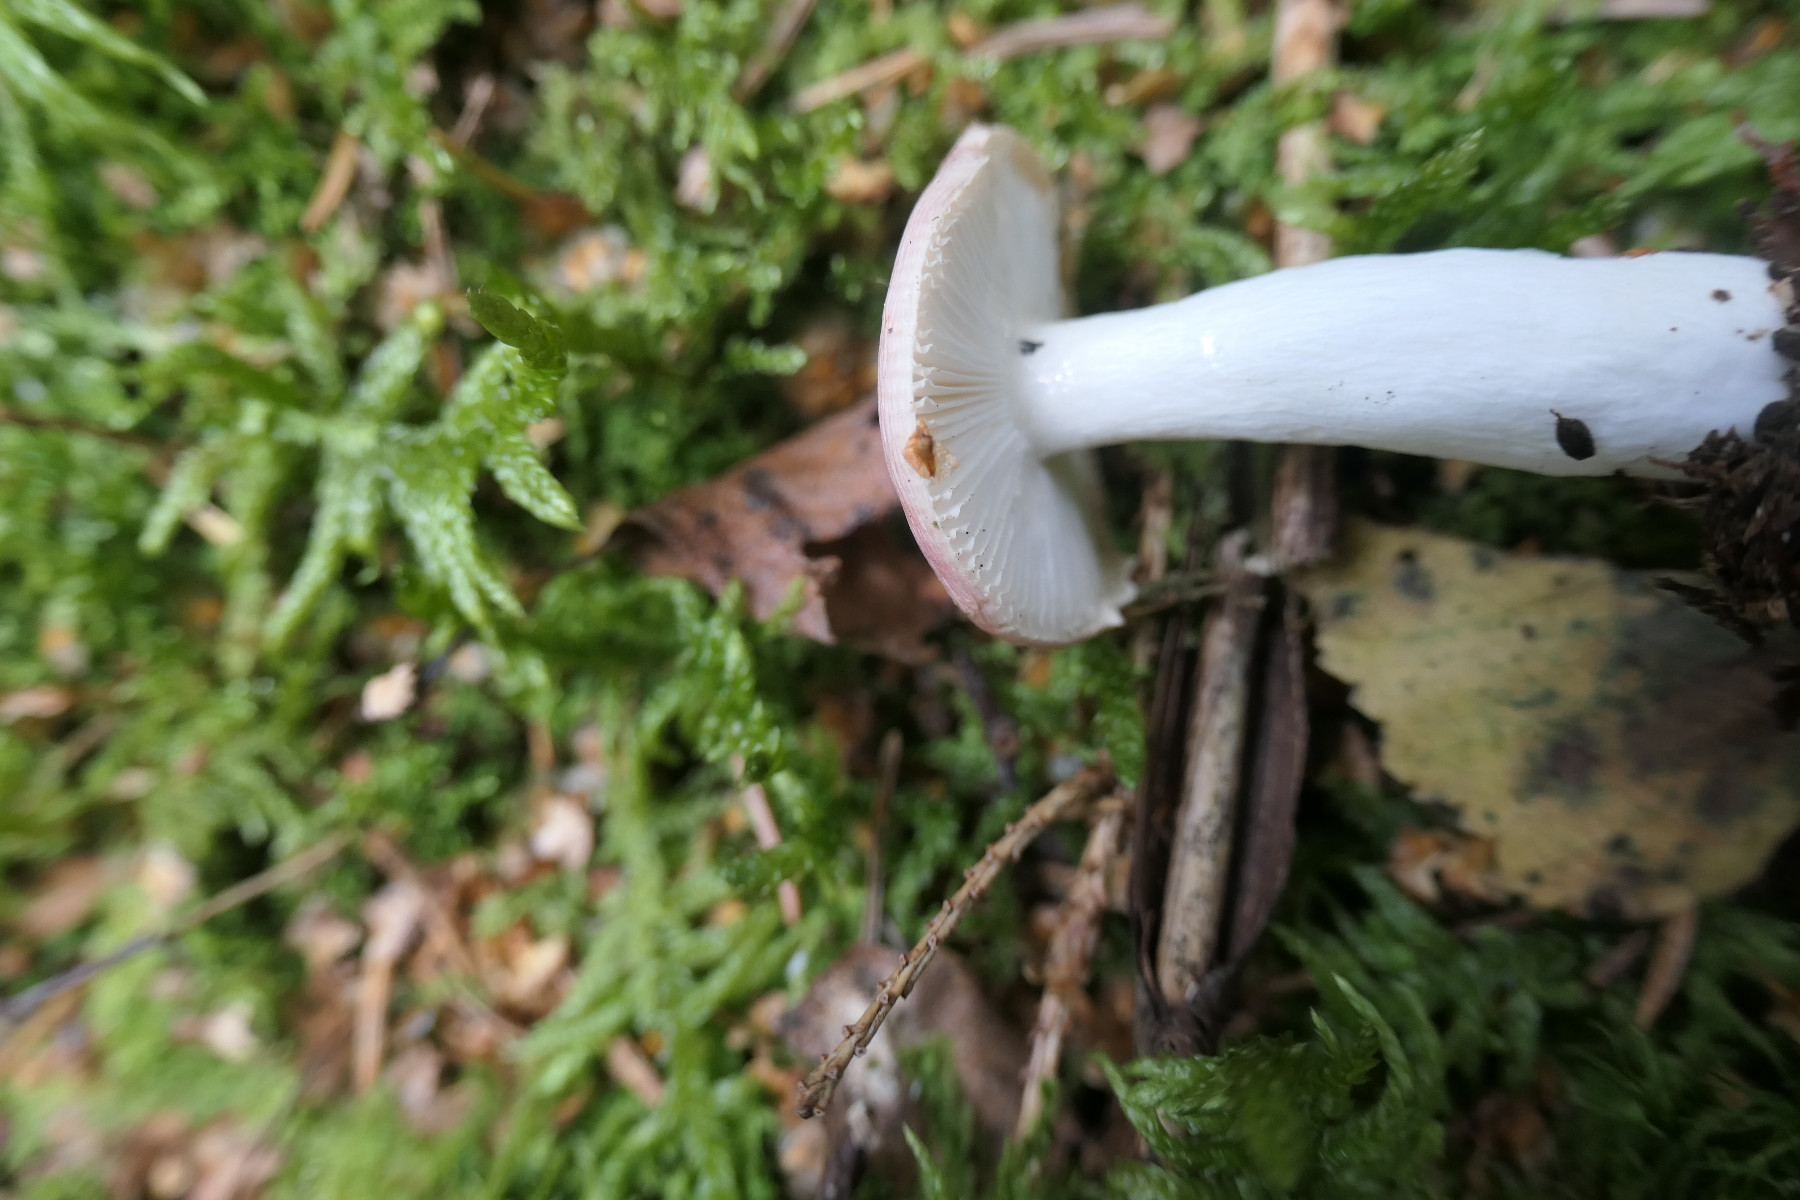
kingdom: Fungi
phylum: Basidiomycota
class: Agaricomycetes
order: Russulales
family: Russulaceae
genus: Russula
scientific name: Russula betularum
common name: bleg gift-skørhat
